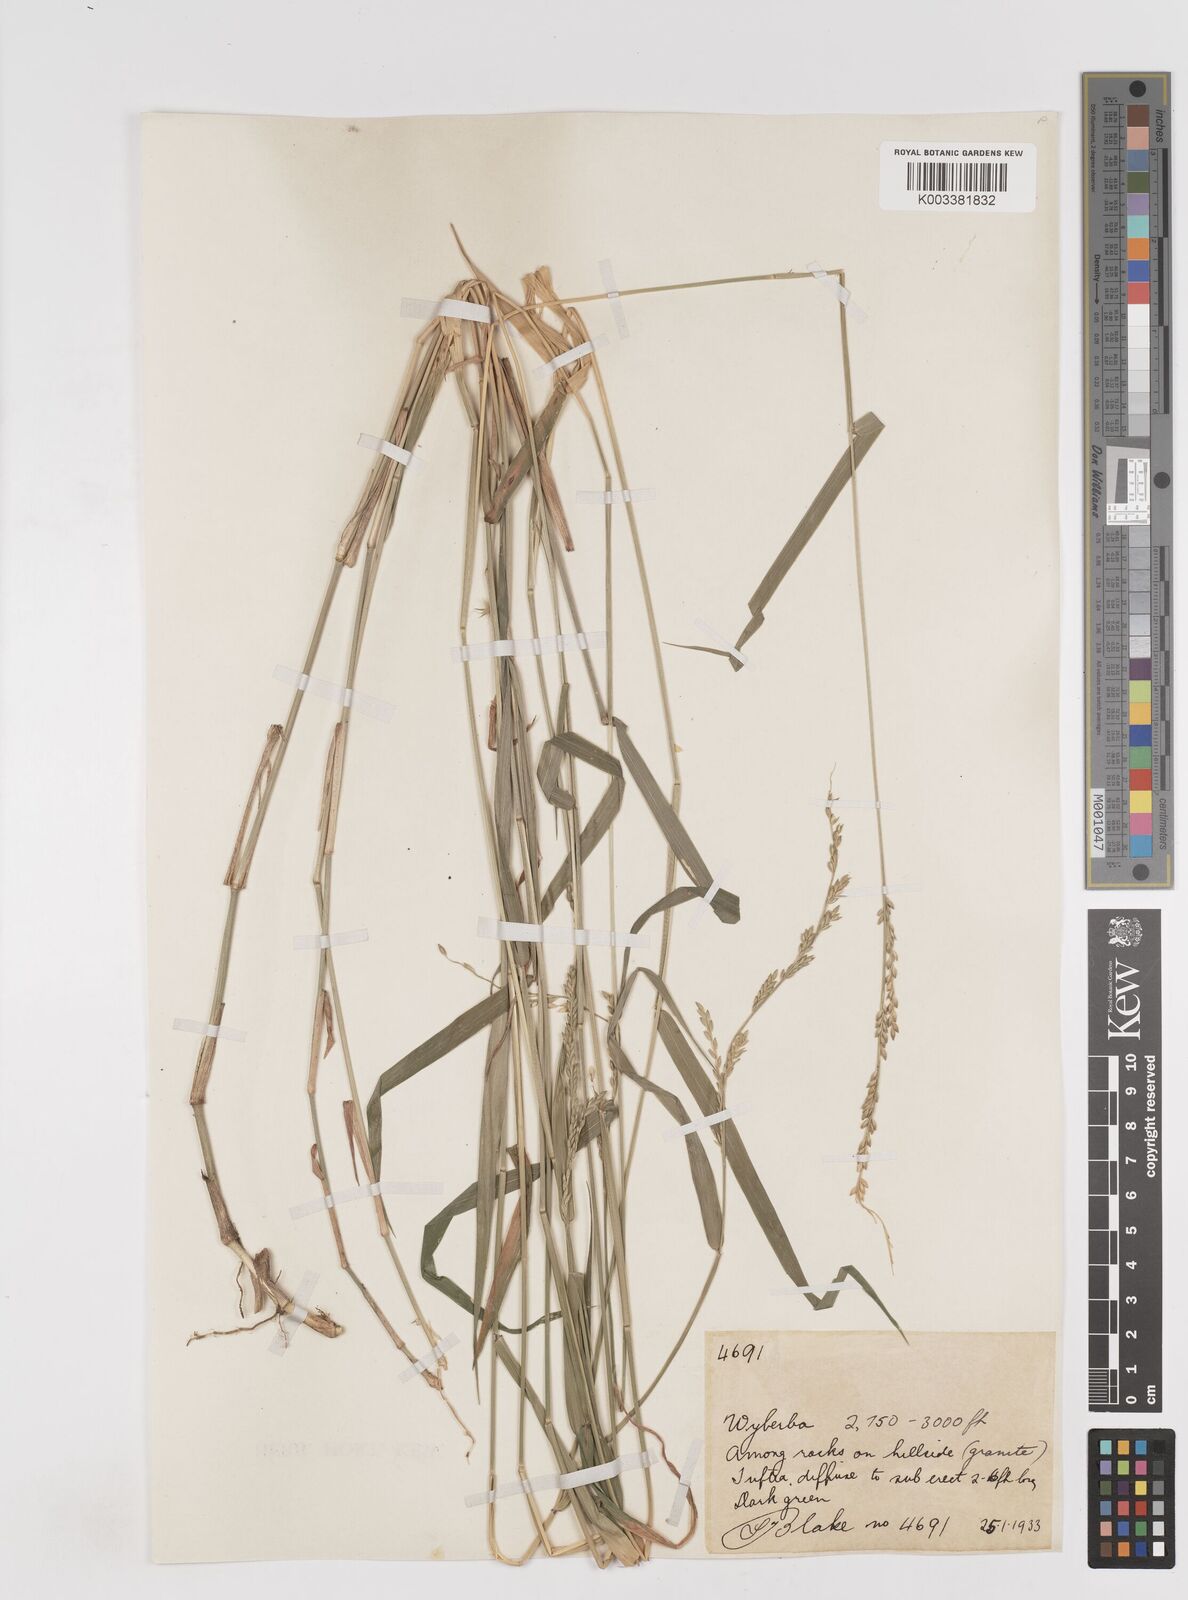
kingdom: Plantae
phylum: Tracheophyta
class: Liliopsida
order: Poales
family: Poaceae
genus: Entolasia
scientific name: Entolasia
